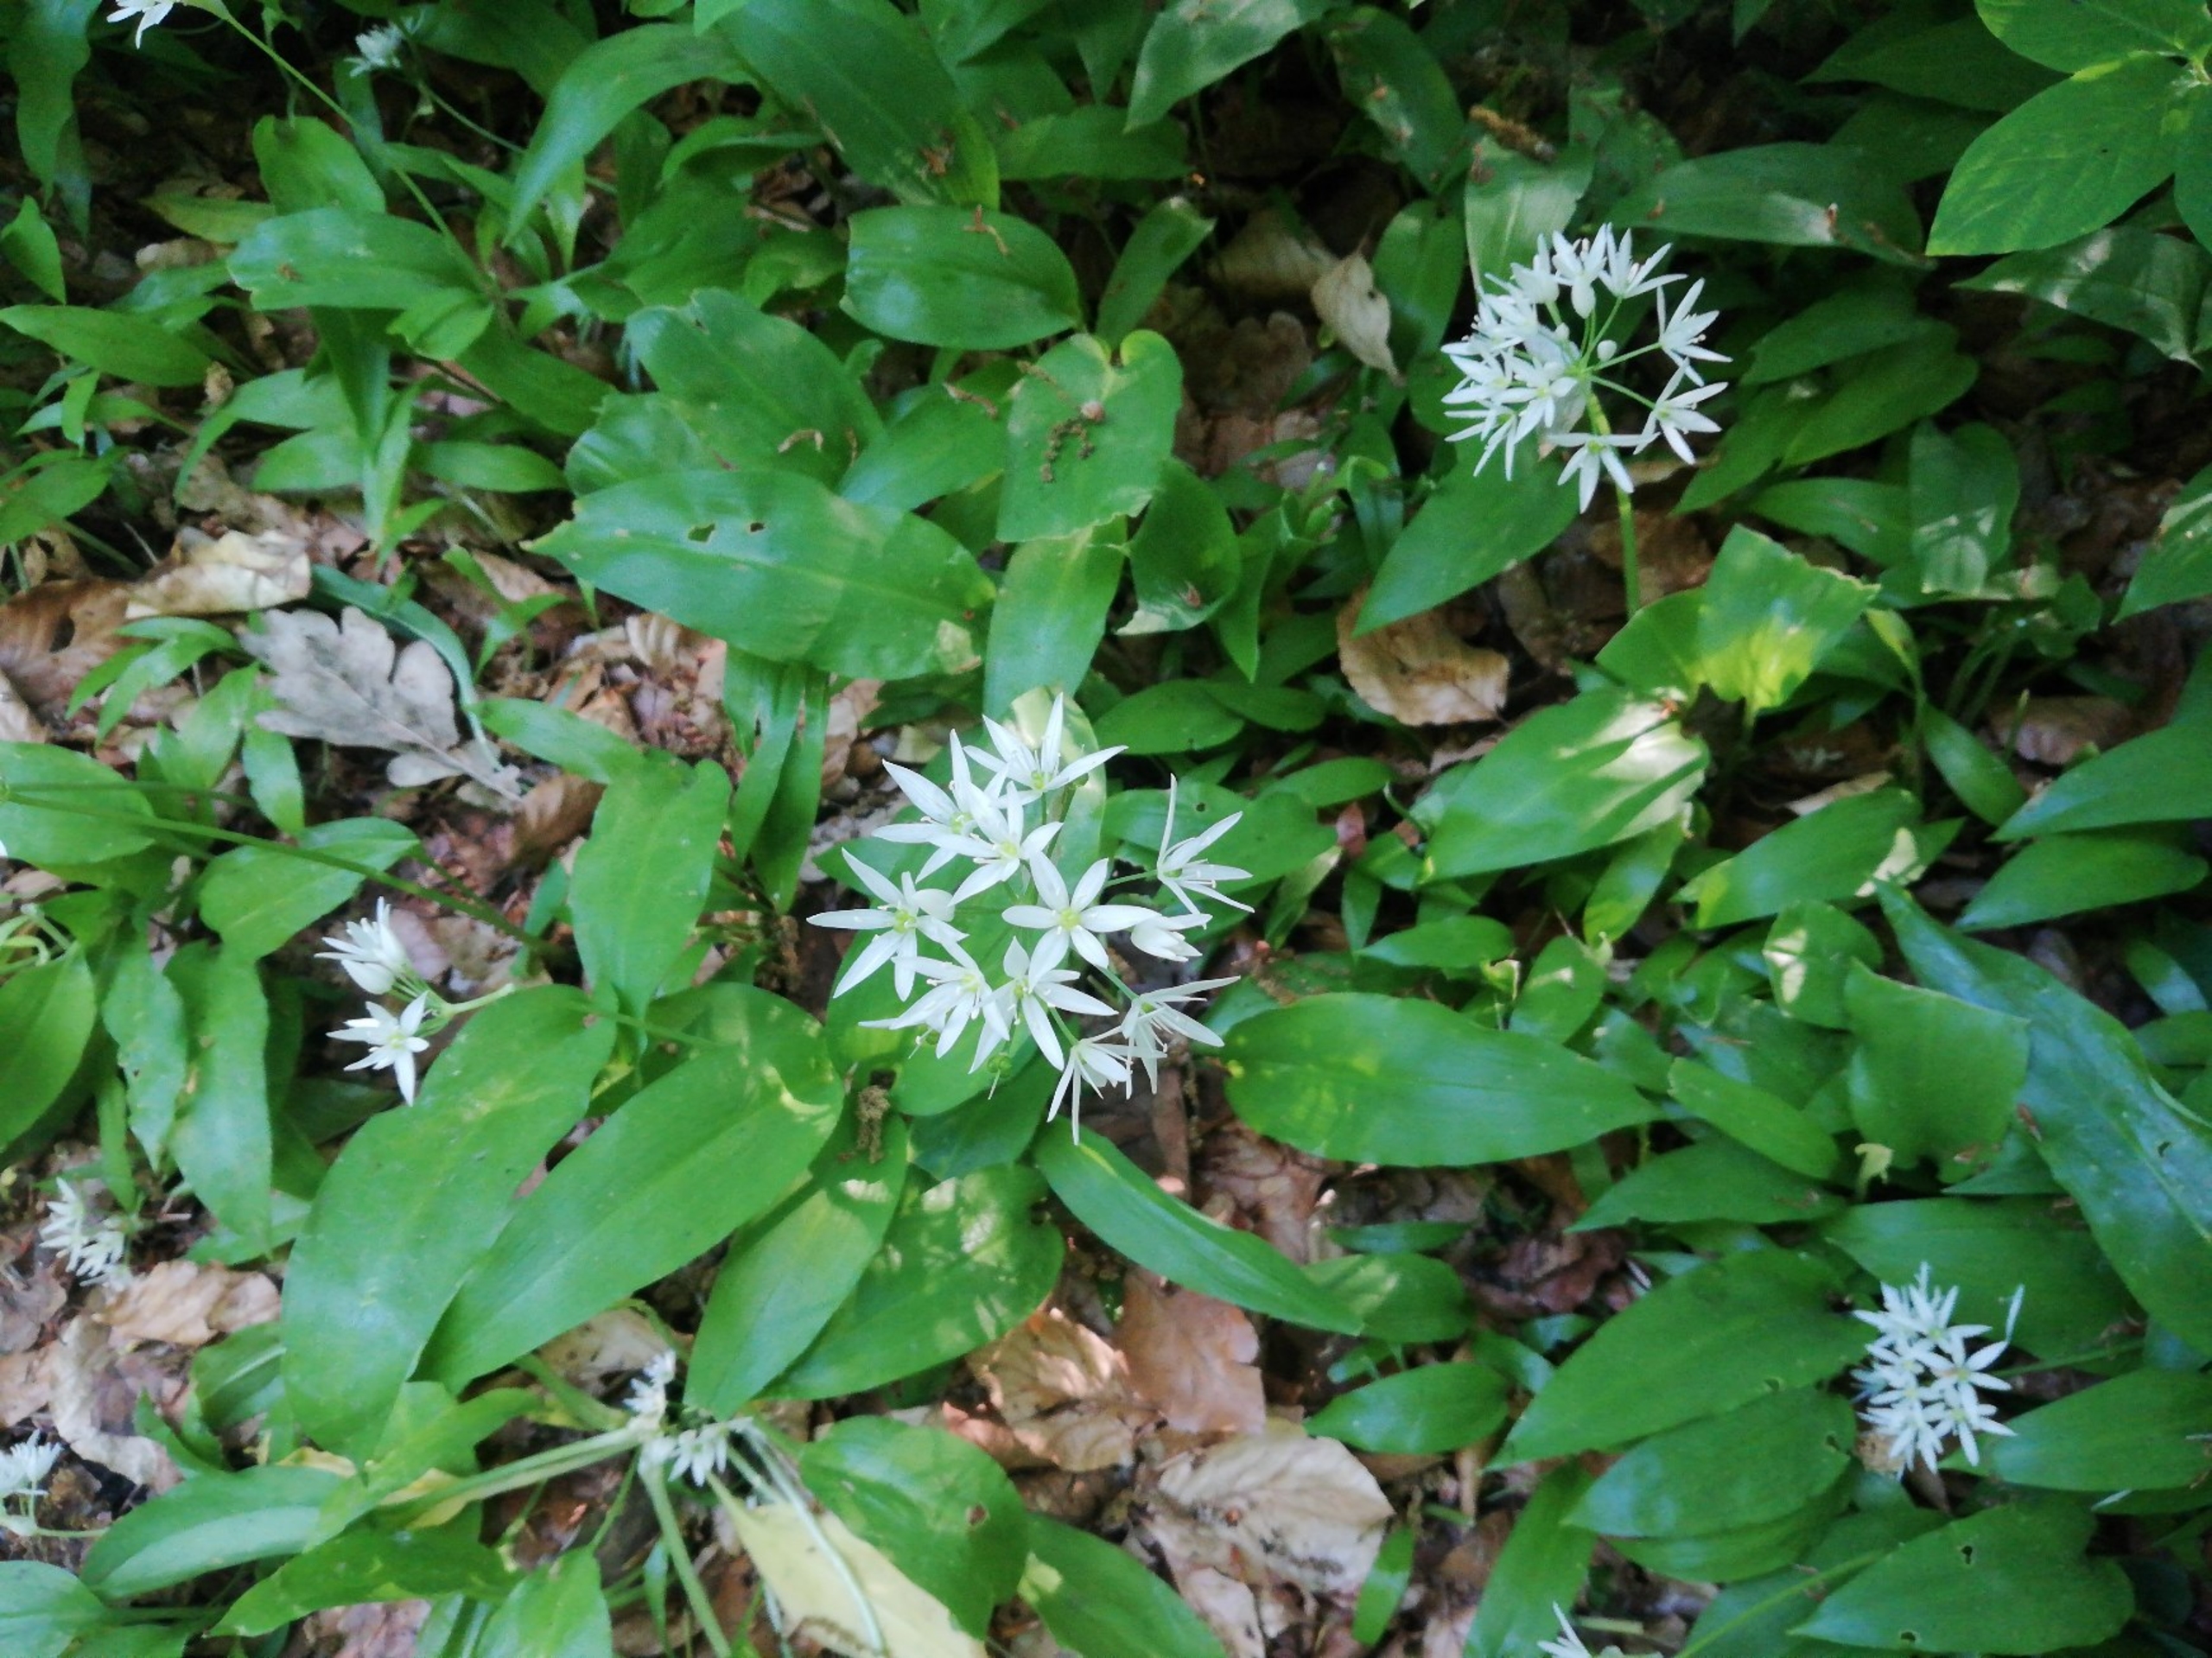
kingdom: Plantae
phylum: Tracheophyta
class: Liliopsida
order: Asparagales
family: Amaryllidaceae
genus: Allium
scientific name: Allium ursinum
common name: Rams-løg
